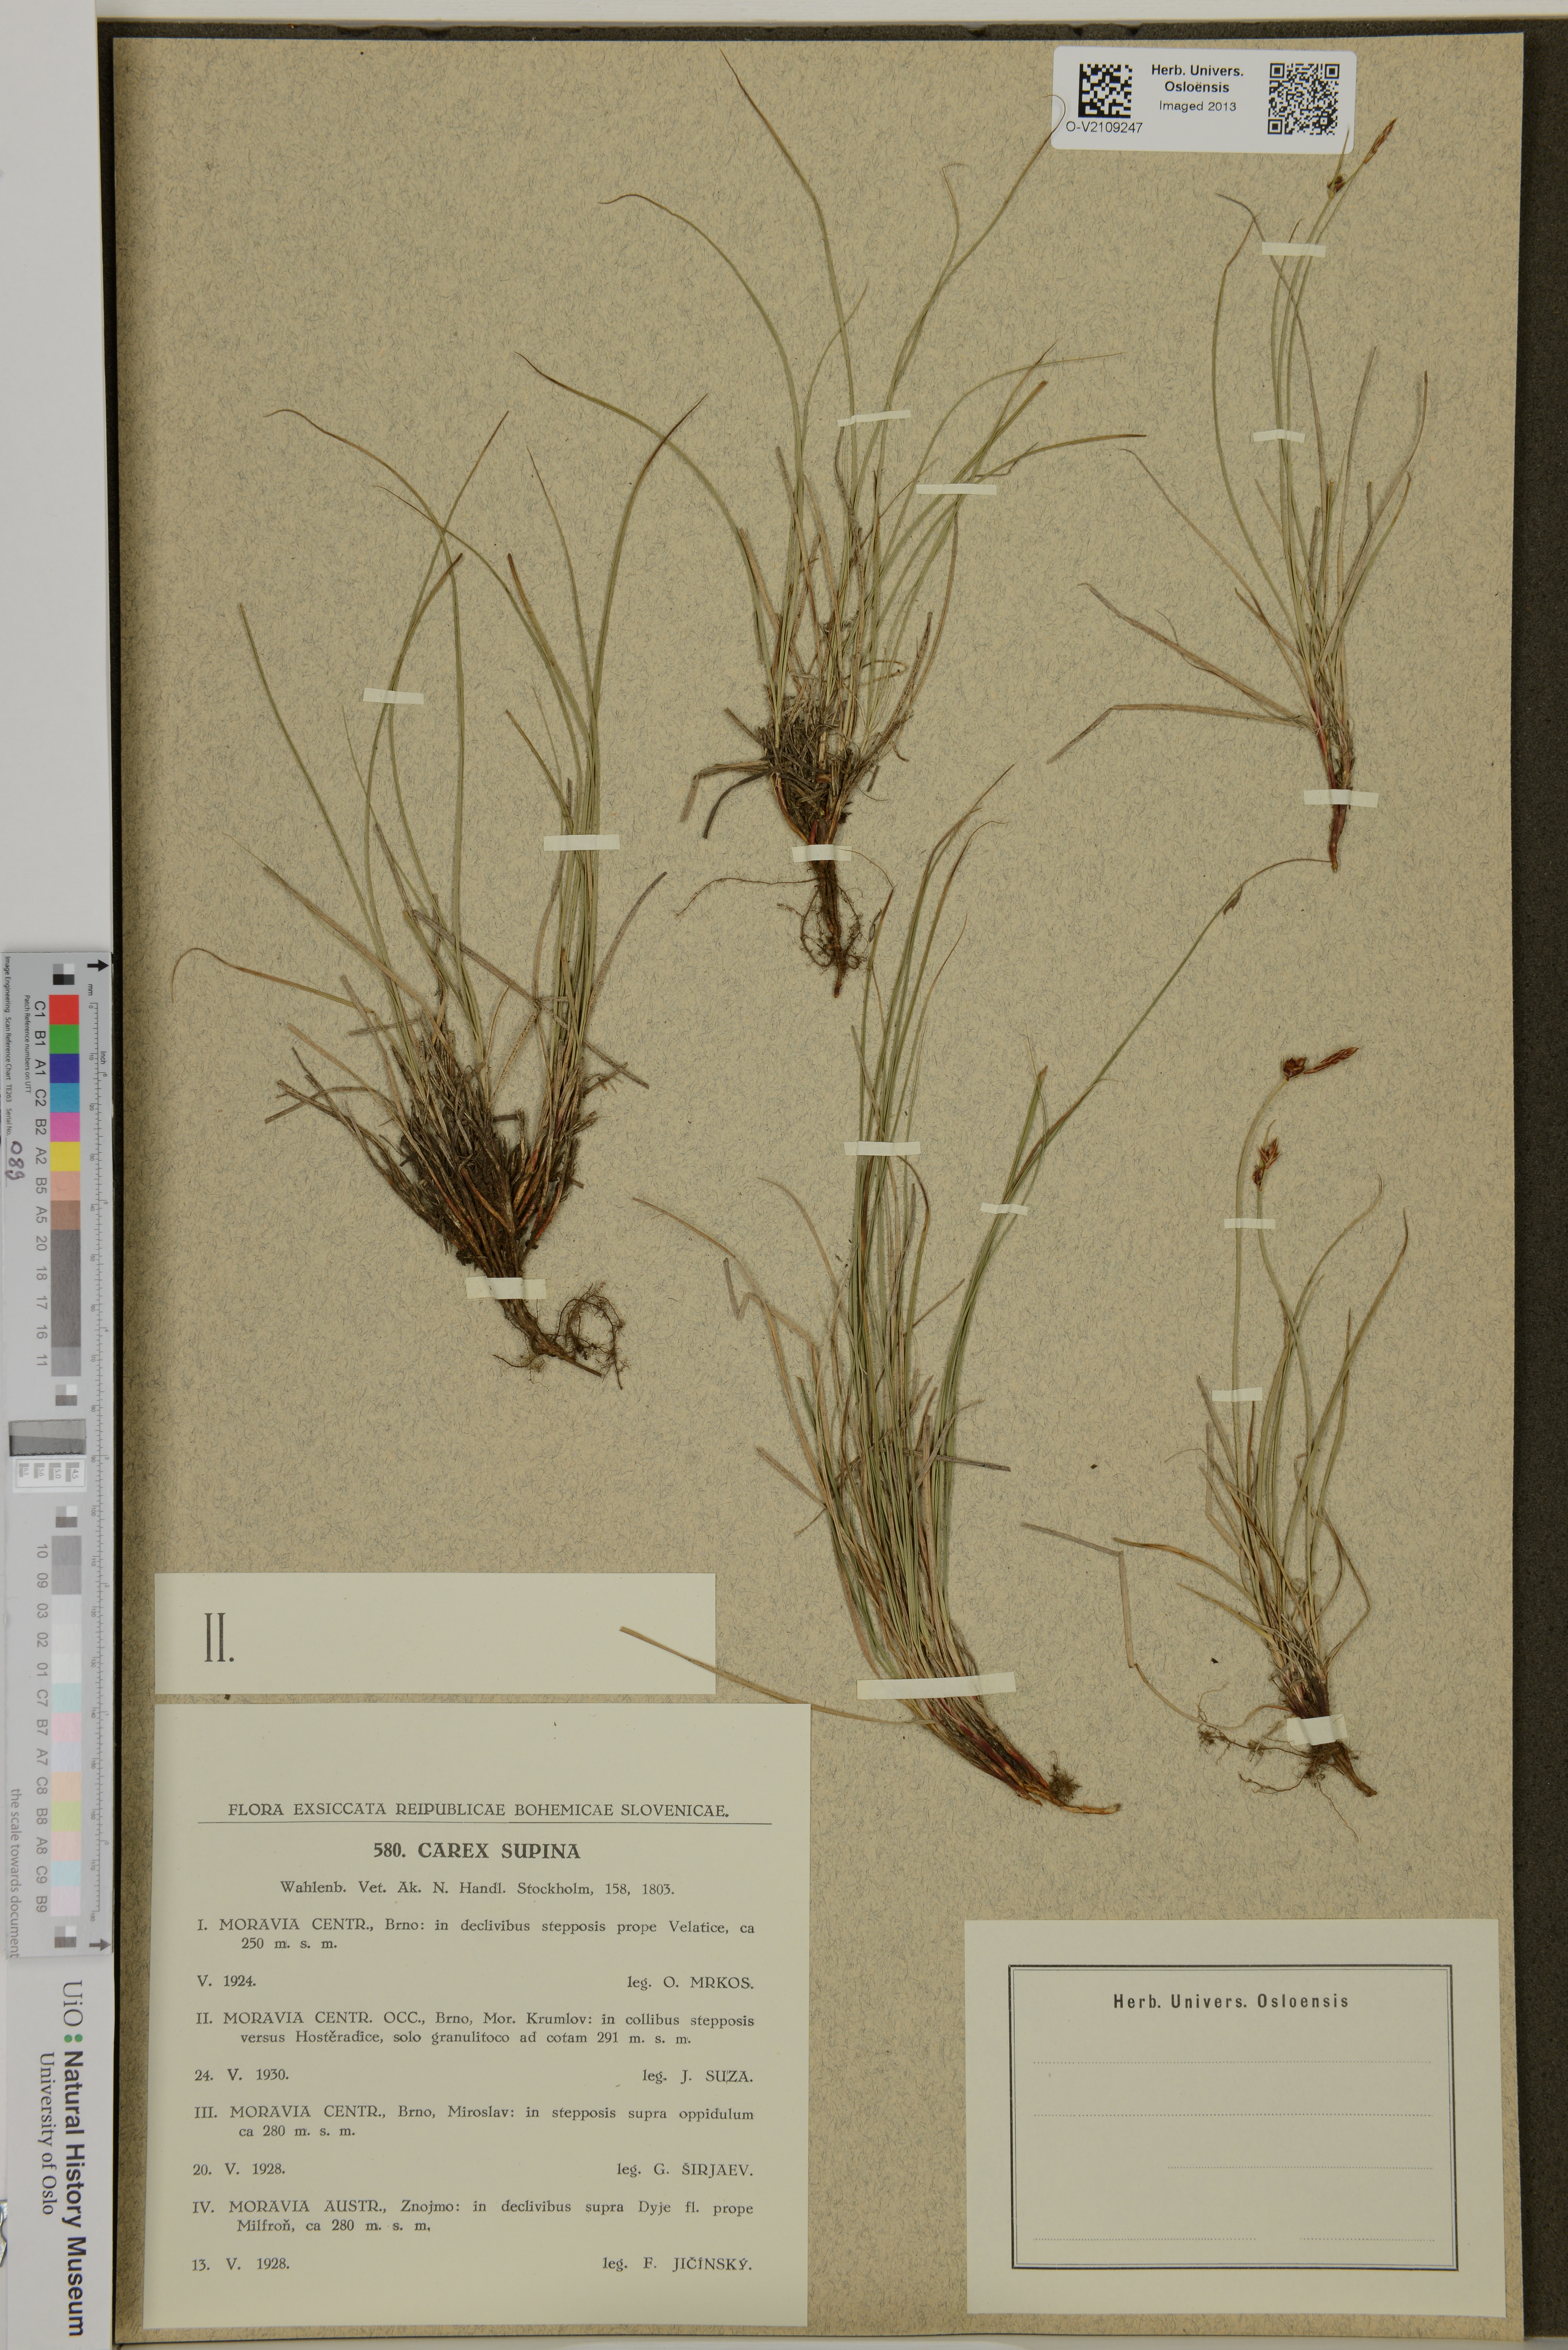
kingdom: Plantae
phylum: Tracheophyta
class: Liliopsida
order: Poales
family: Cyperaceae
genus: Carex
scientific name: Carex supina
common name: Lying-back sedge
